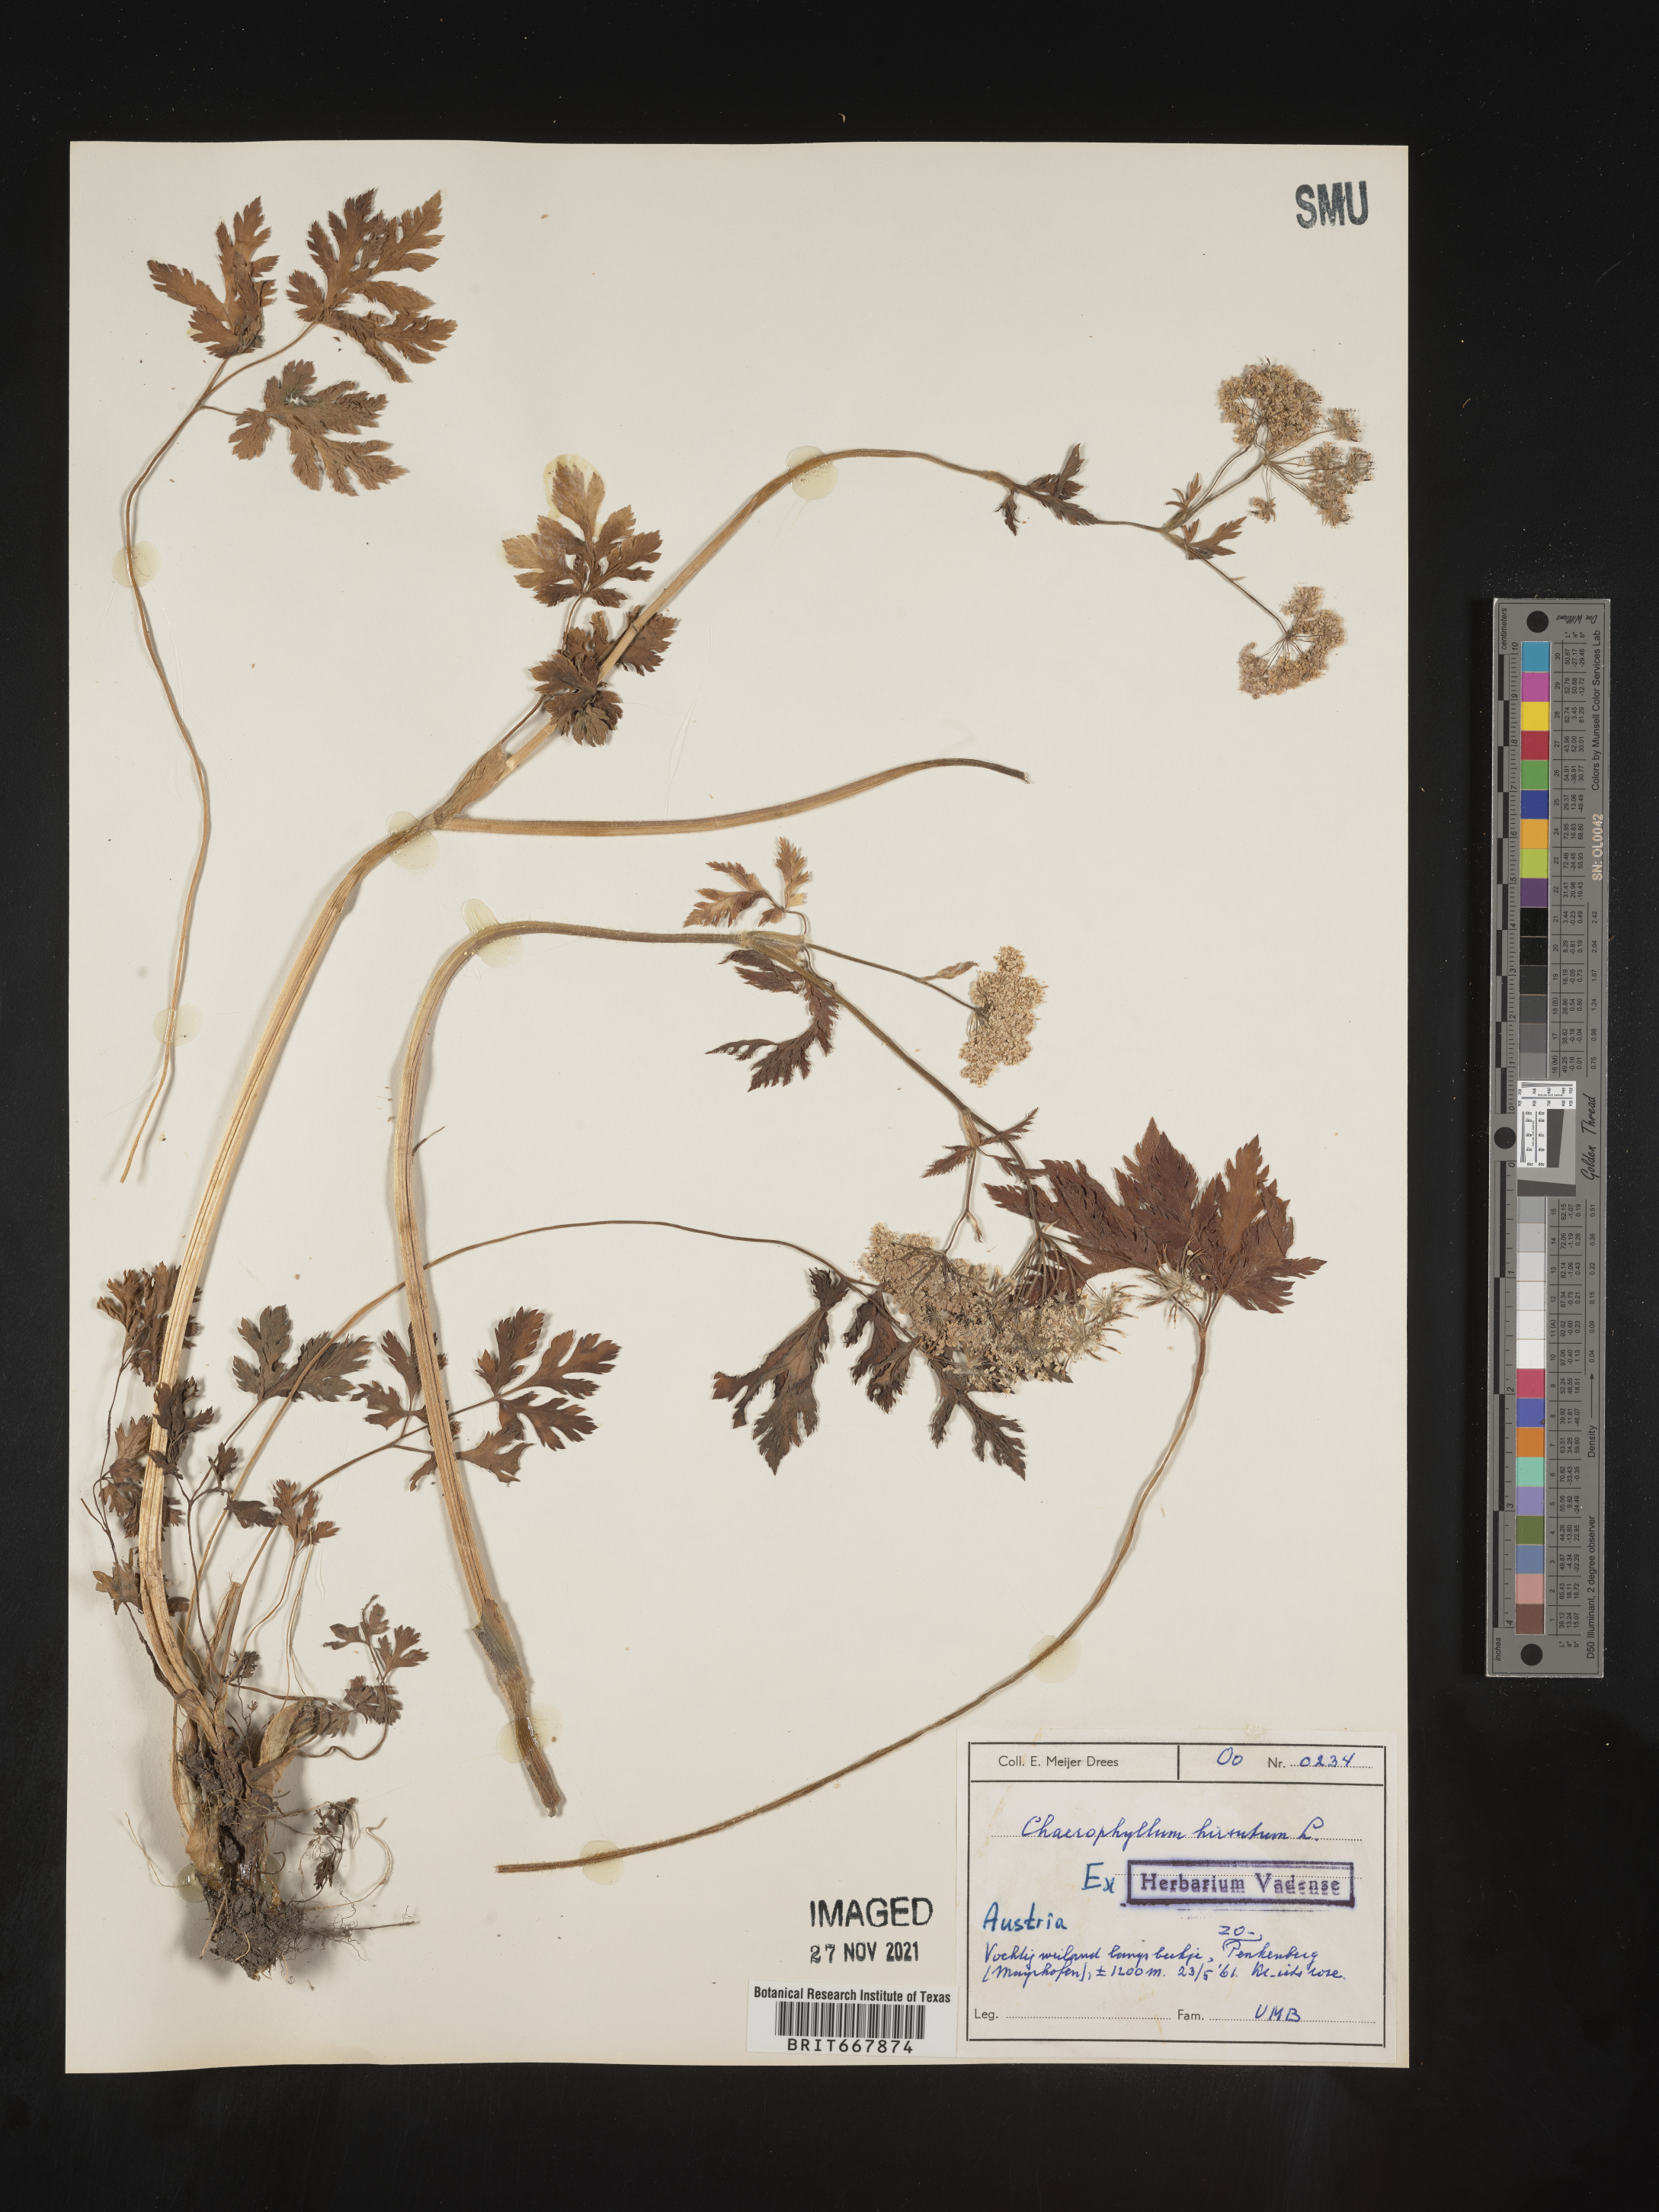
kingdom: Plantae
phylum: Tracheophyta
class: Magnoliopsida
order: Apiales
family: Apiaceae
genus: Chaerophyllum
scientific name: Chaerophyllum
